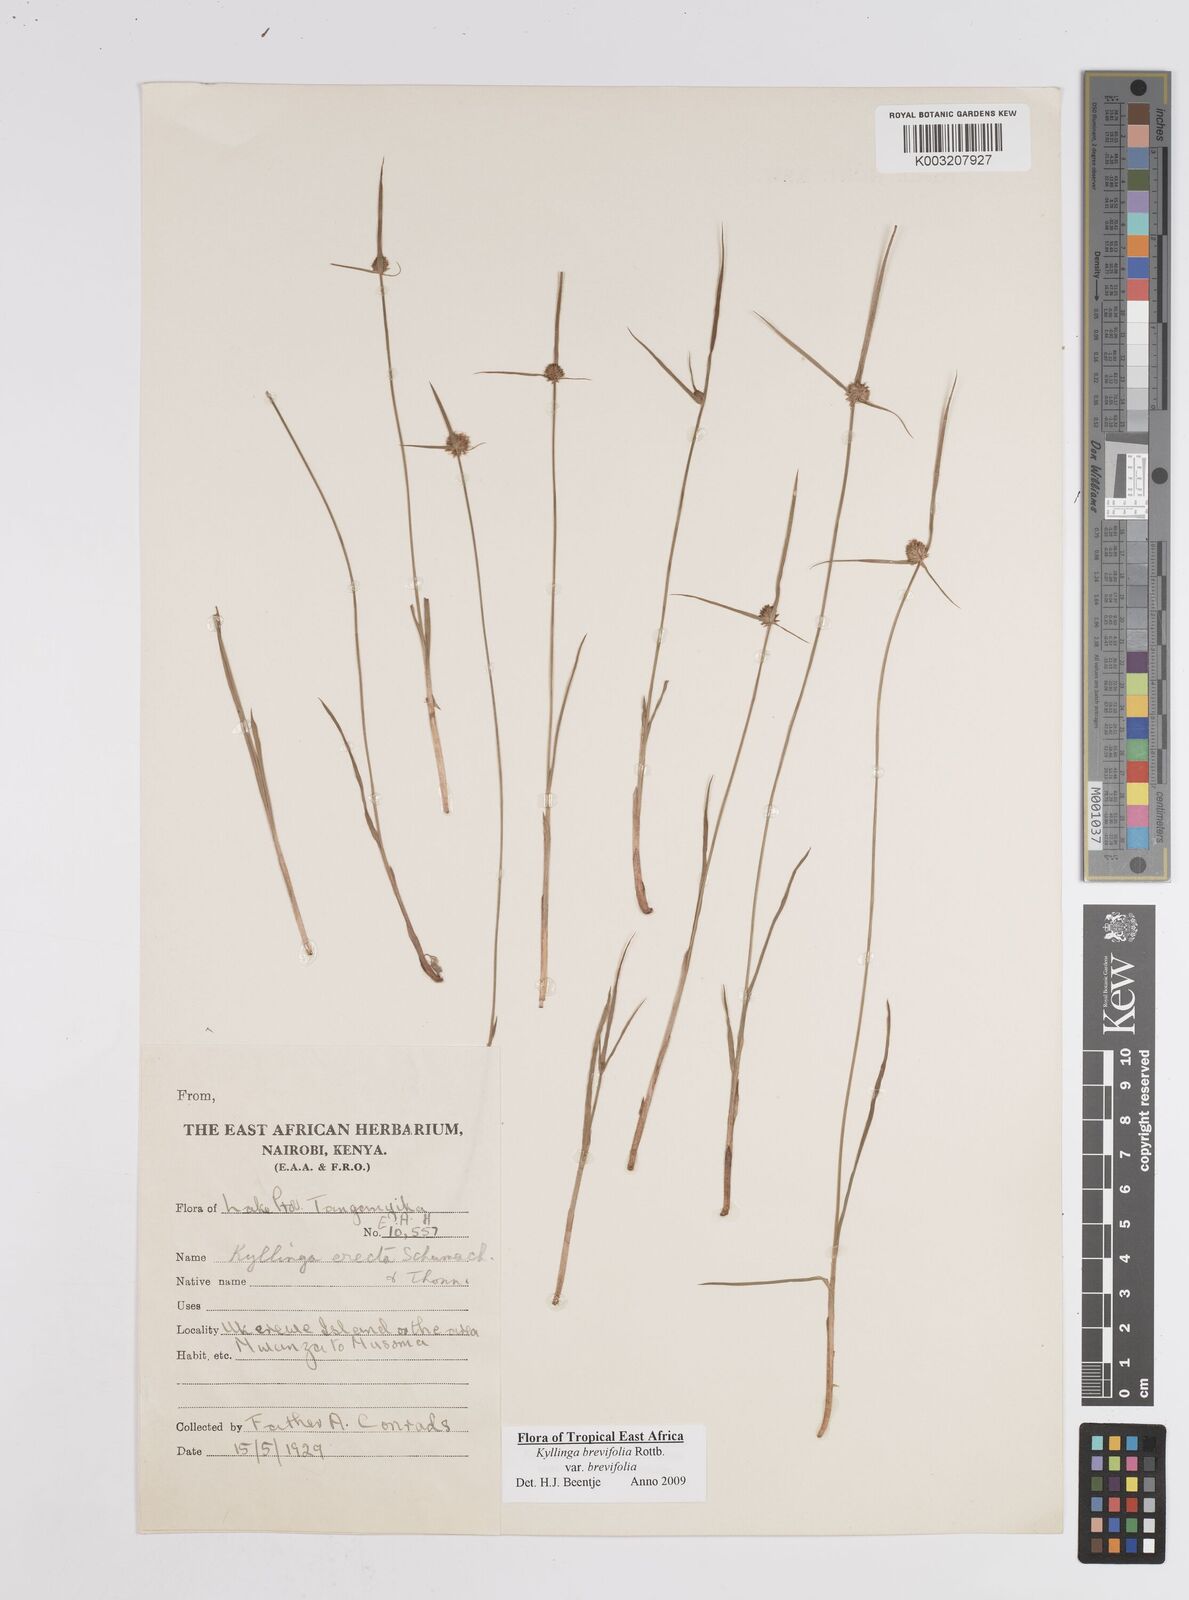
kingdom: Plantae
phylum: Tracheophyta
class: Liliopsida
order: Poales
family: Cyperaceae
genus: Cyperus
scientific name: Cyperus brevifolius
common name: Globe kyllinga
